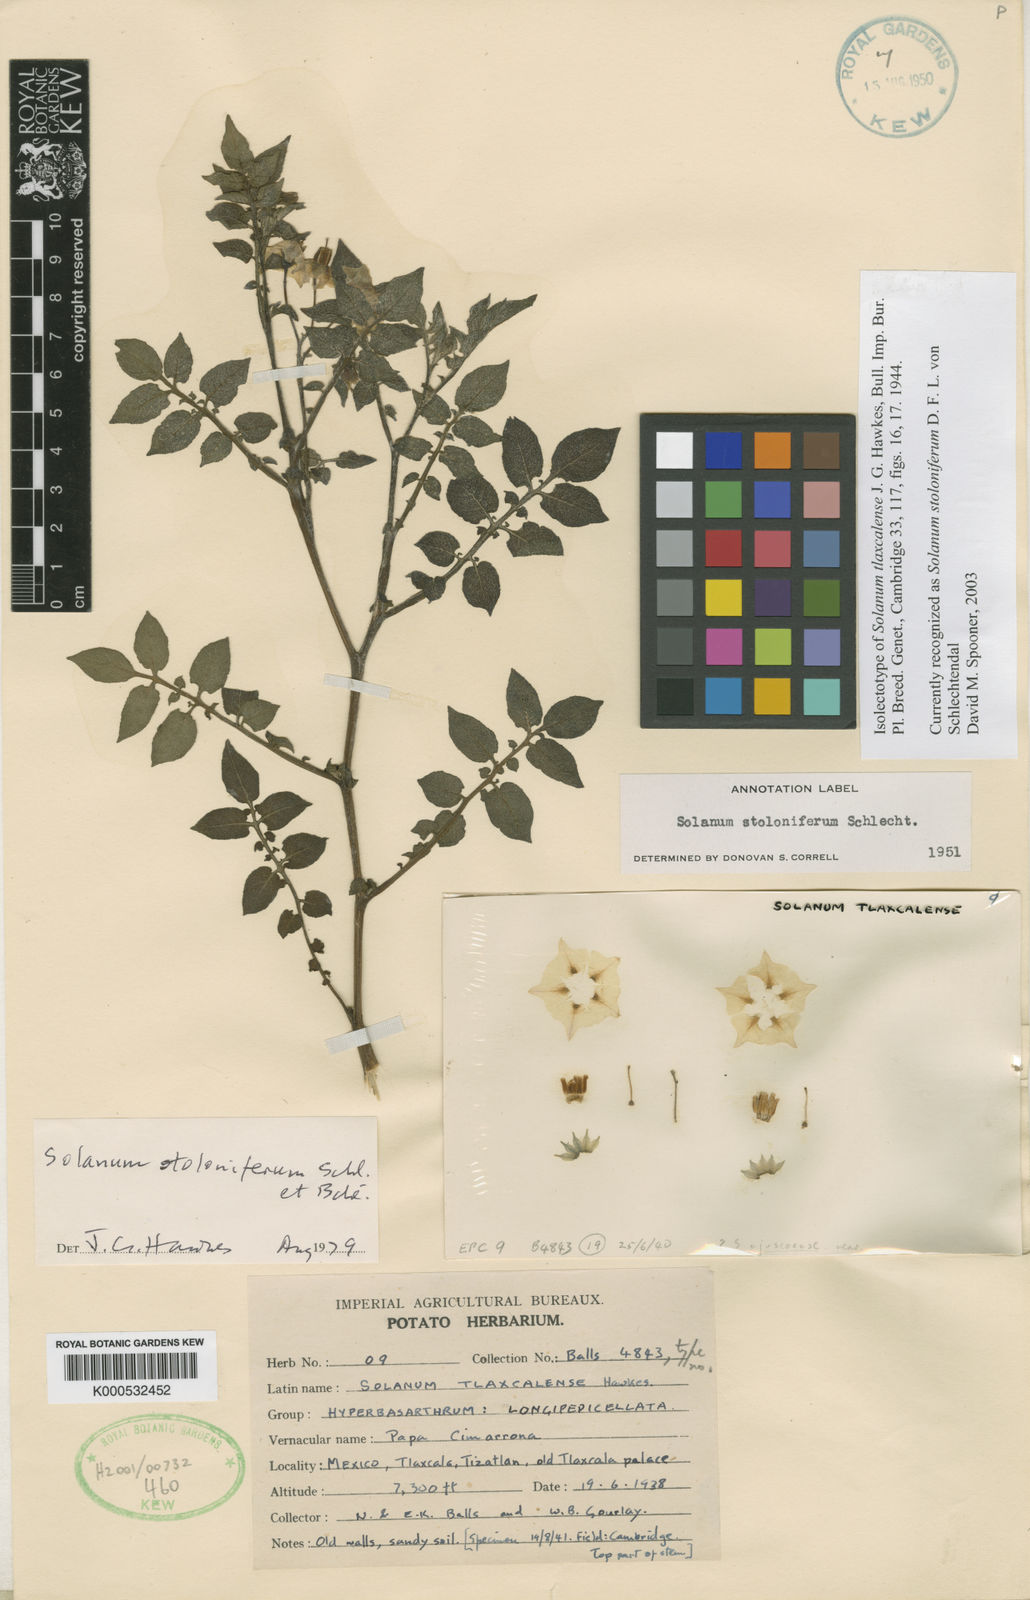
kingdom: Plantae
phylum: Tracheophyta
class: Magnoliopsida
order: Solanales
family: Solanaceae
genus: Solanum
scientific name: Solanum
